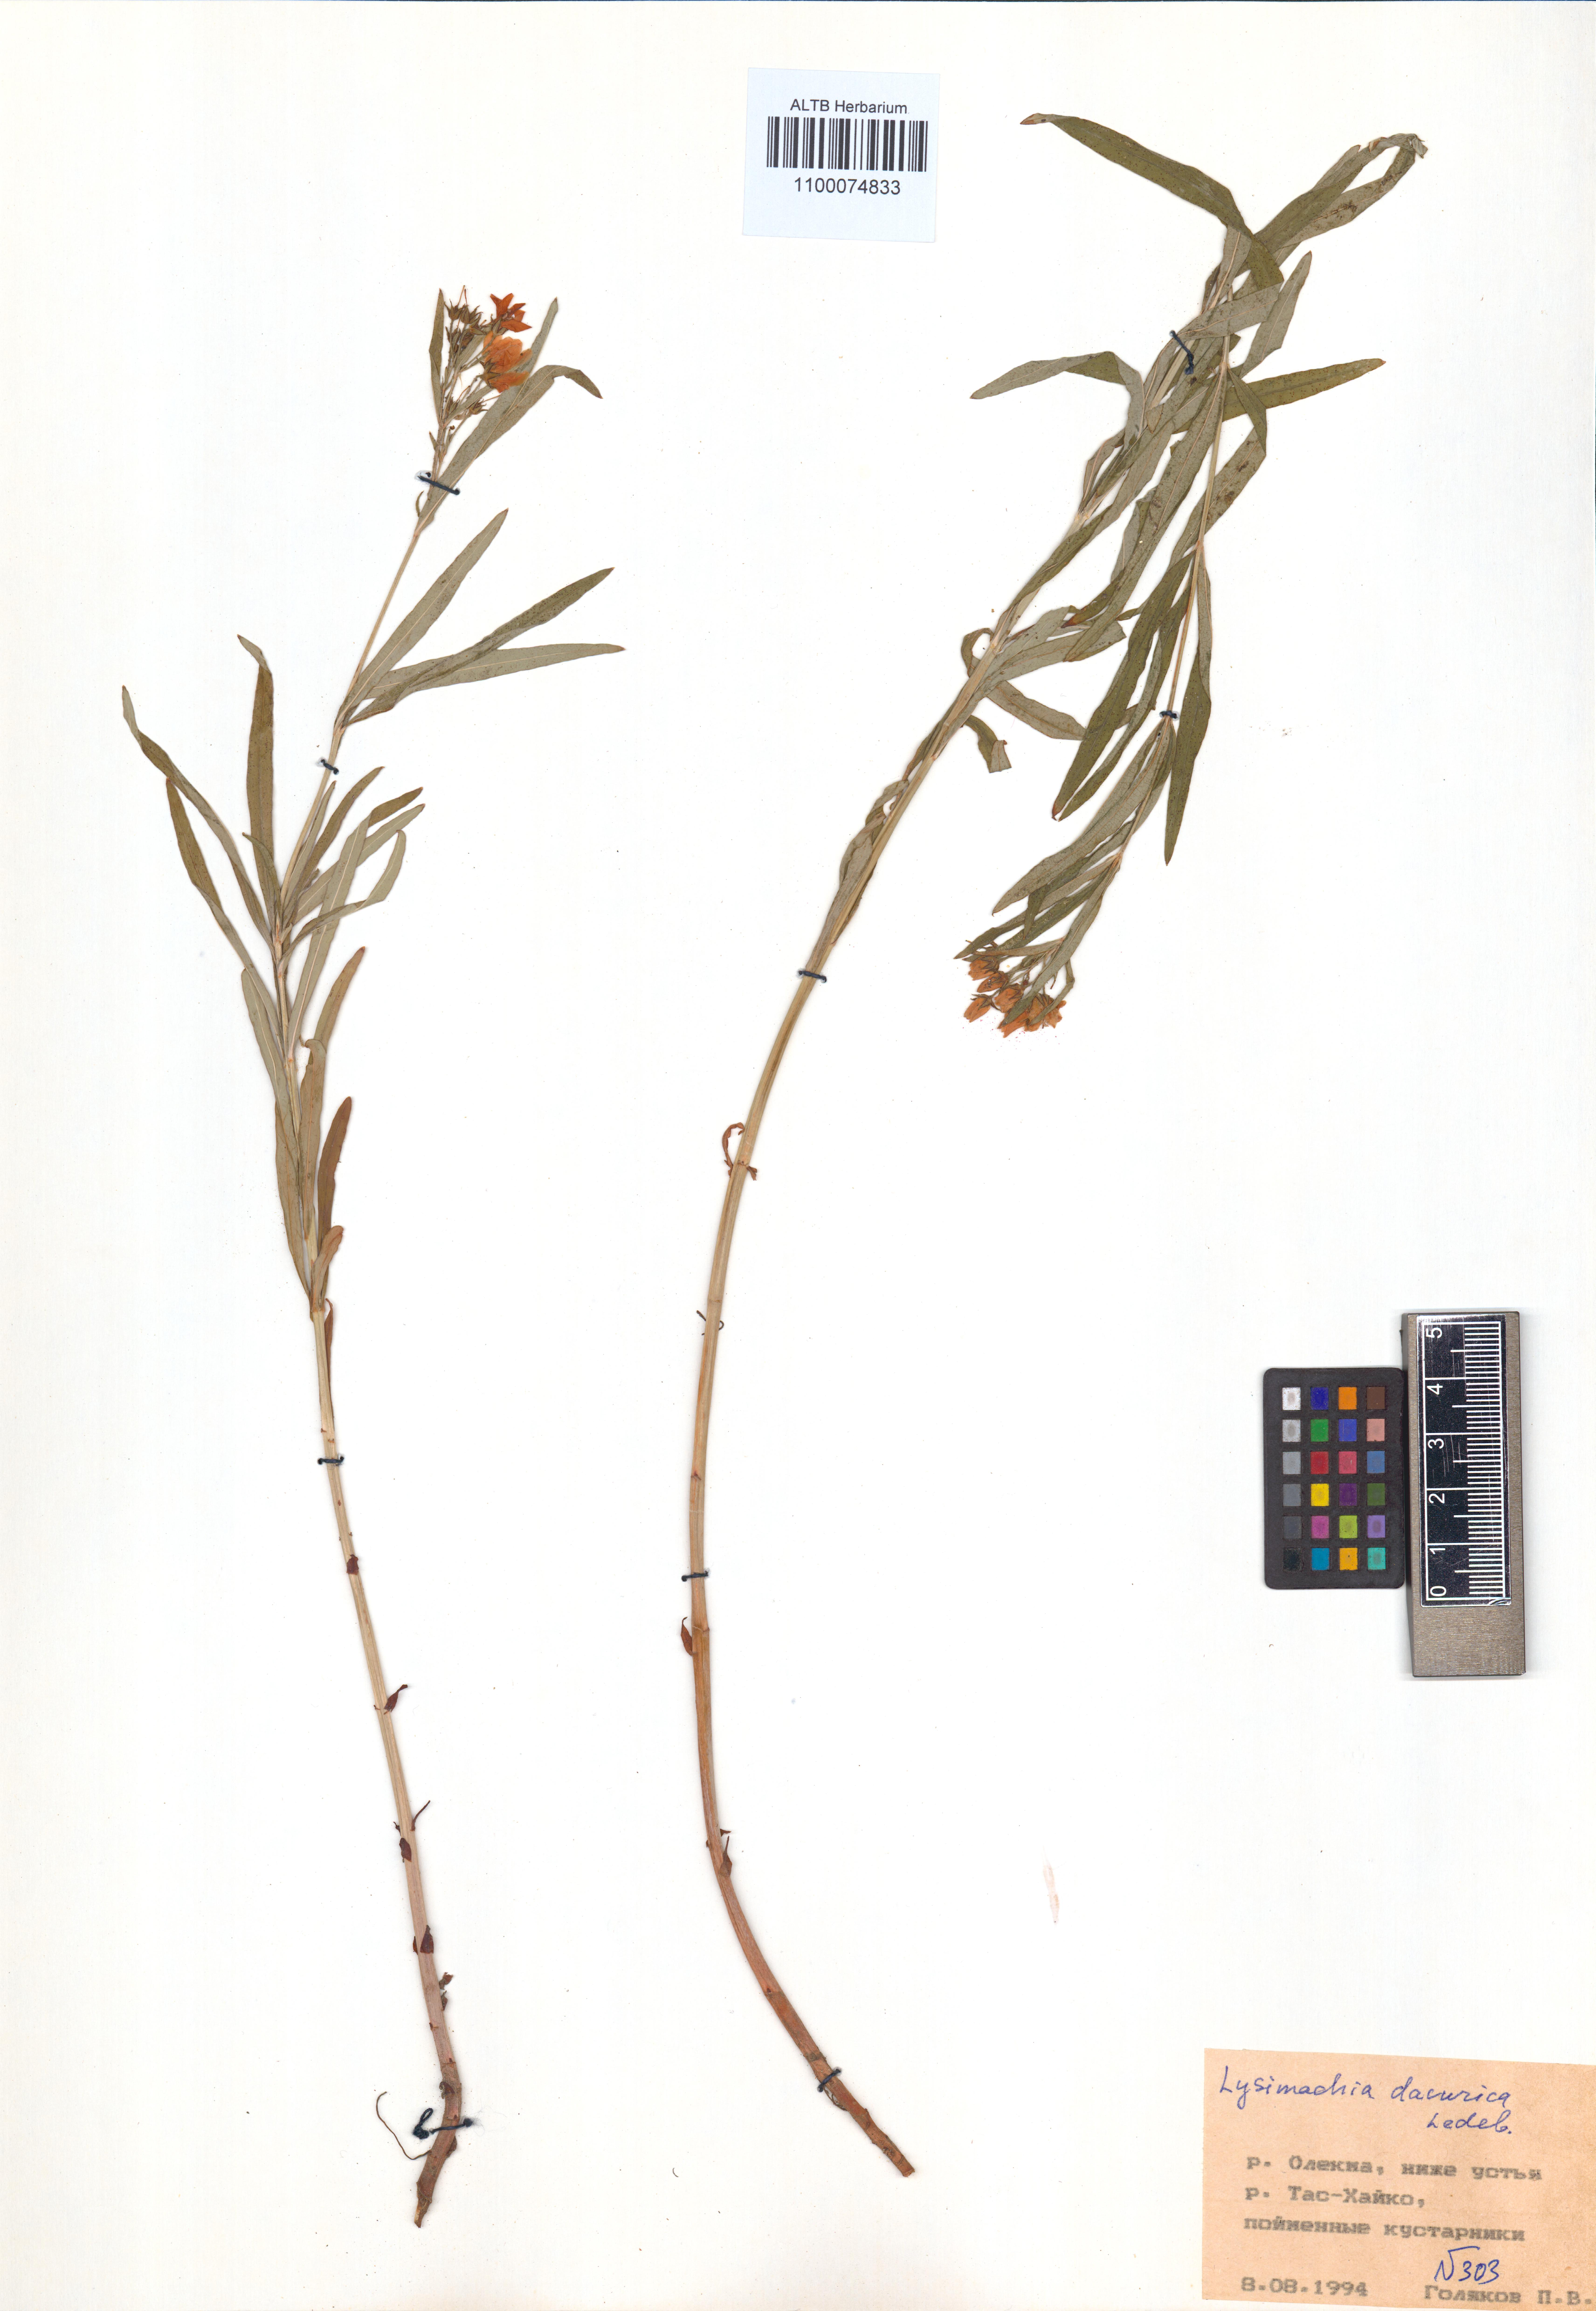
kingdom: Plantae
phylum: Tracheophyta
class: Magnoliopsida
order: Ericales
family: Primulaceae
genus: Lysimachia
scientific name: Lysimachia davurica
